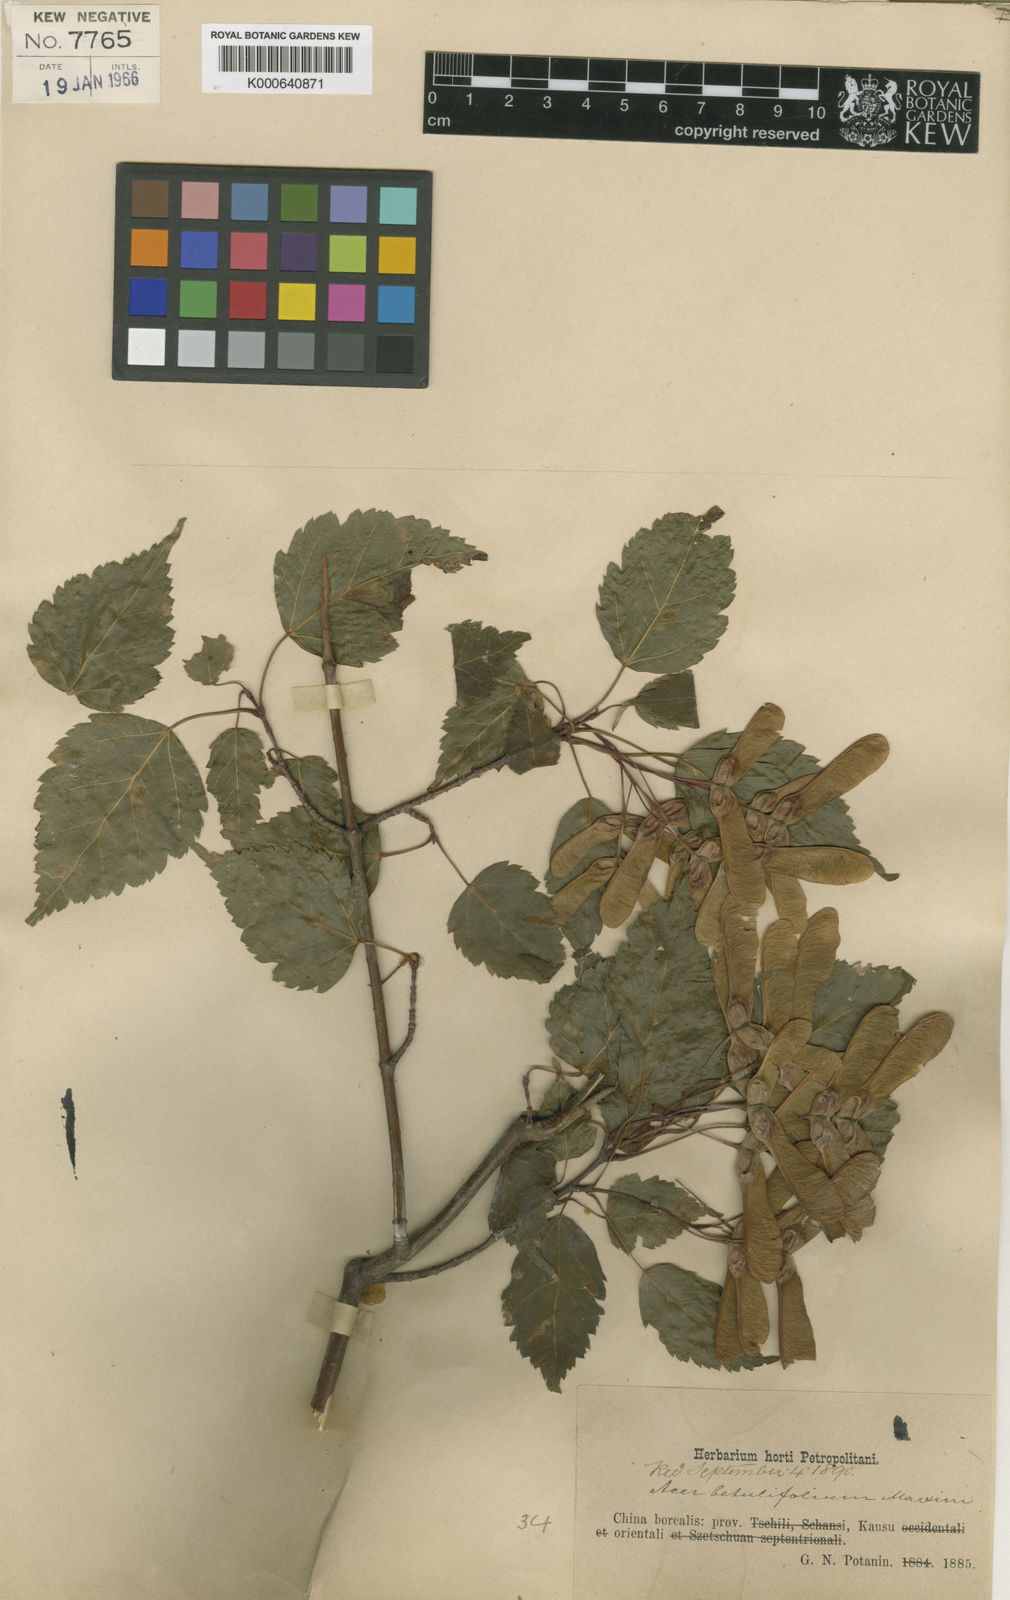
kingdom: Plantae
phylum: Tracheophyta
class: Magnoliopsida
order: Sapindales
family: Sapindaceae
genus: Acer
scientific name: Acer stachyophyllum
